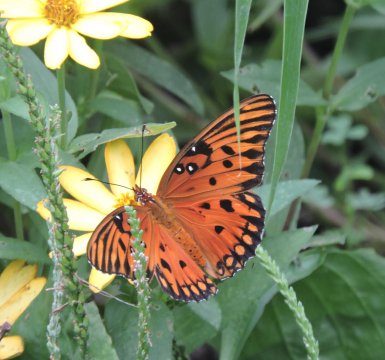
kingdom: Animalia
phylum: Arthropoda
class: Insecta
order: Lepidoptera
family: Nymphalidae
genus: Dione
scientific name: Dione vanillae
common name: Gulf Fritillary
